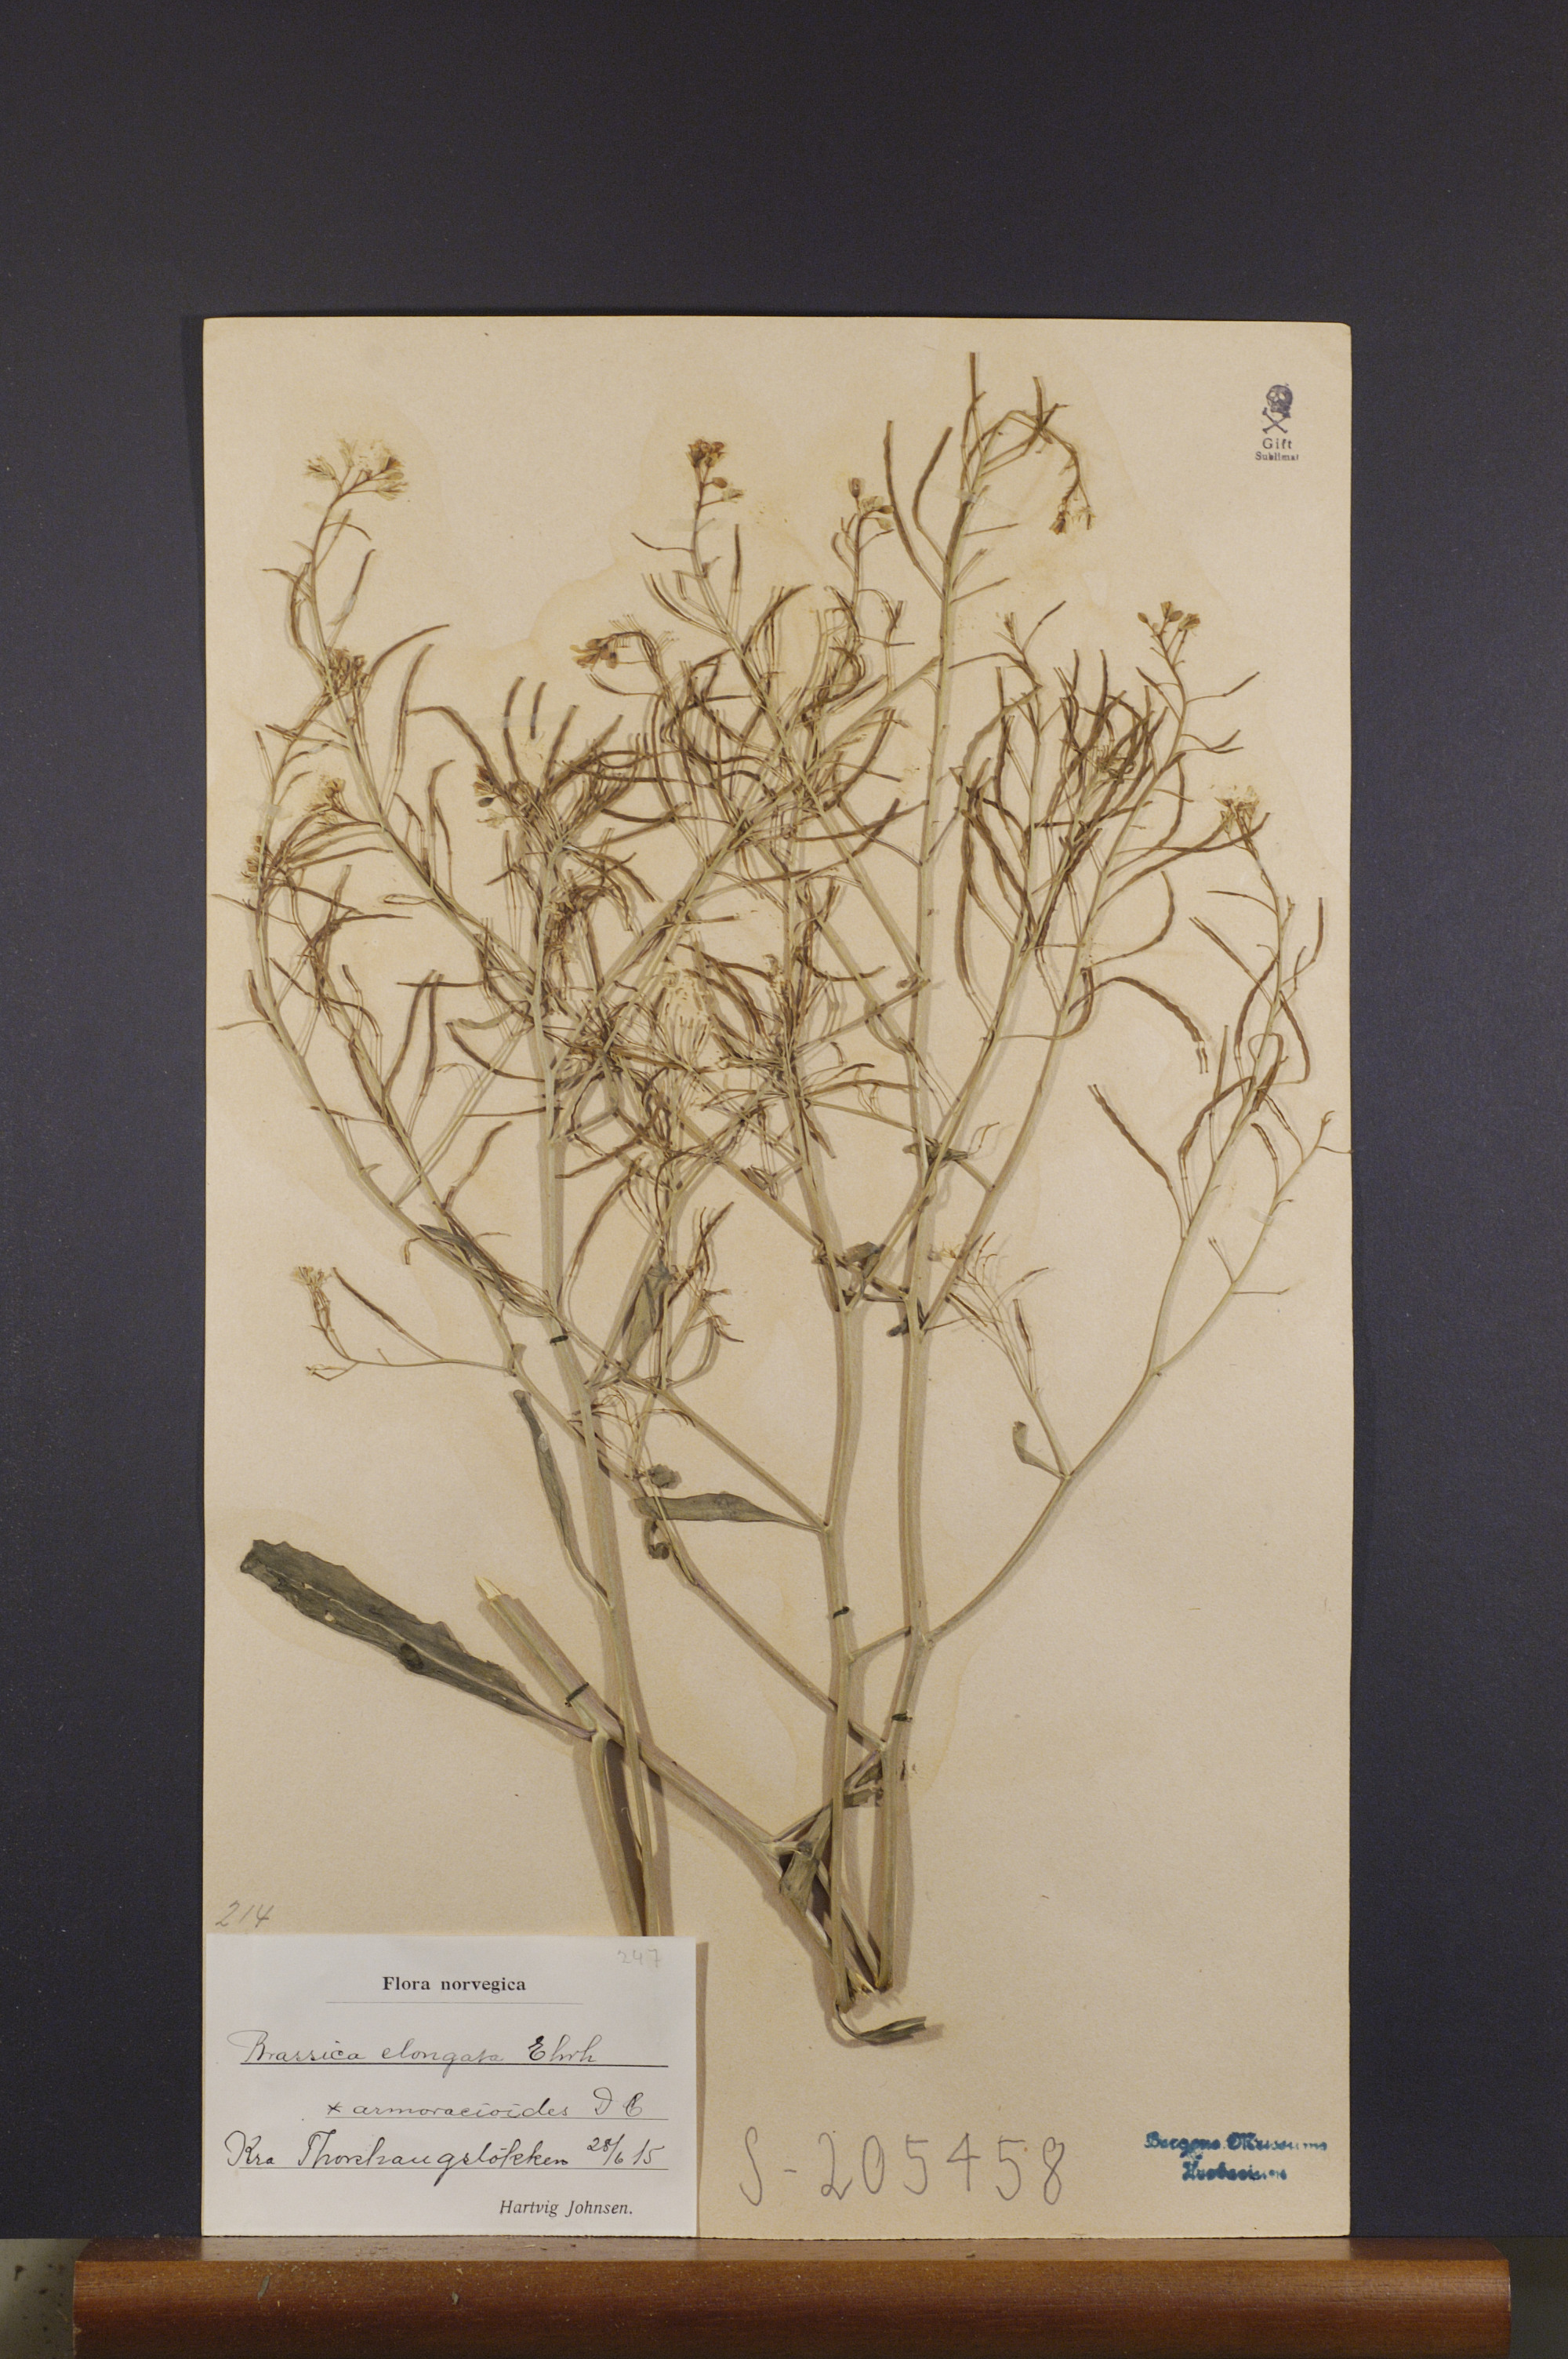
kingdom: Plantae
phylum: Tracheophyta
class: Magnoliopsida
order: Brassicales
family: Brassicaceae
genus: Brassica
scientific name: Brassica elongata
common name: Long-stalked rape
